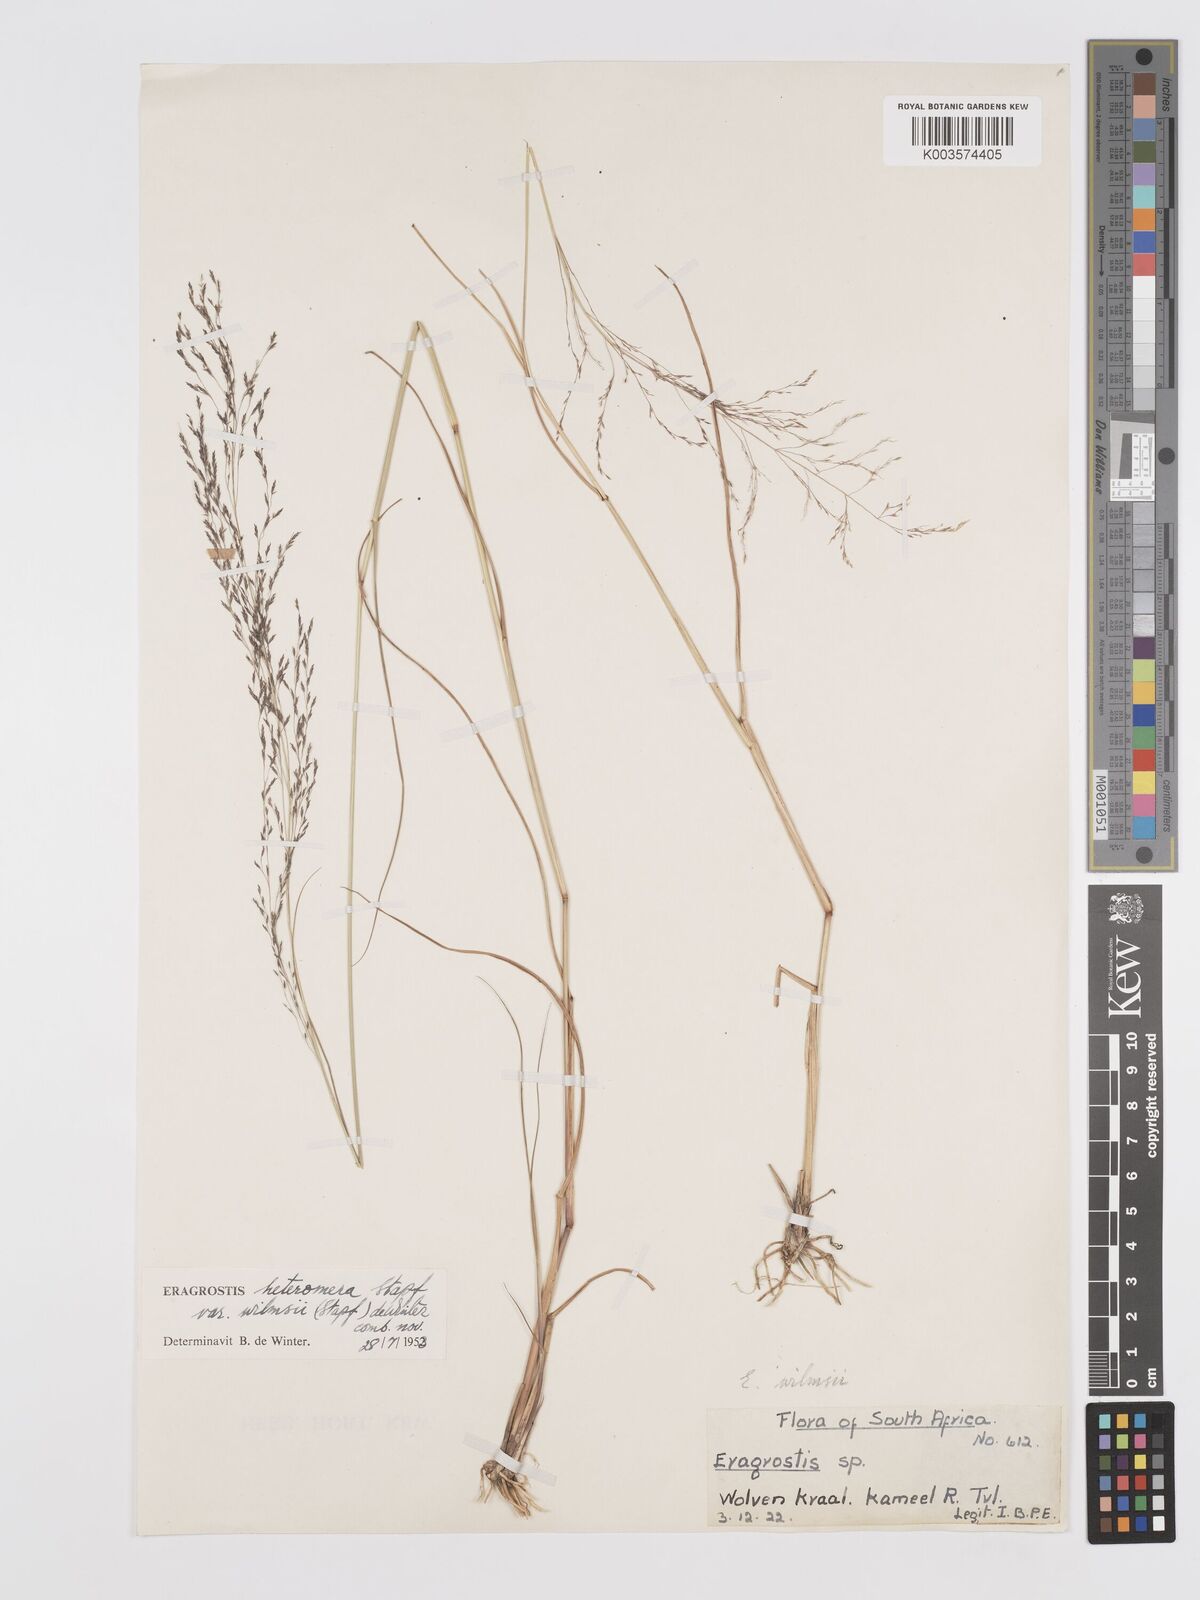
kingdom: Plantae
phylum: Tracheophyta
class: Liliopsida
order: Poales
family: Poaceae
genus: Eragrostis
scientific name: Eragrostis heteromera
